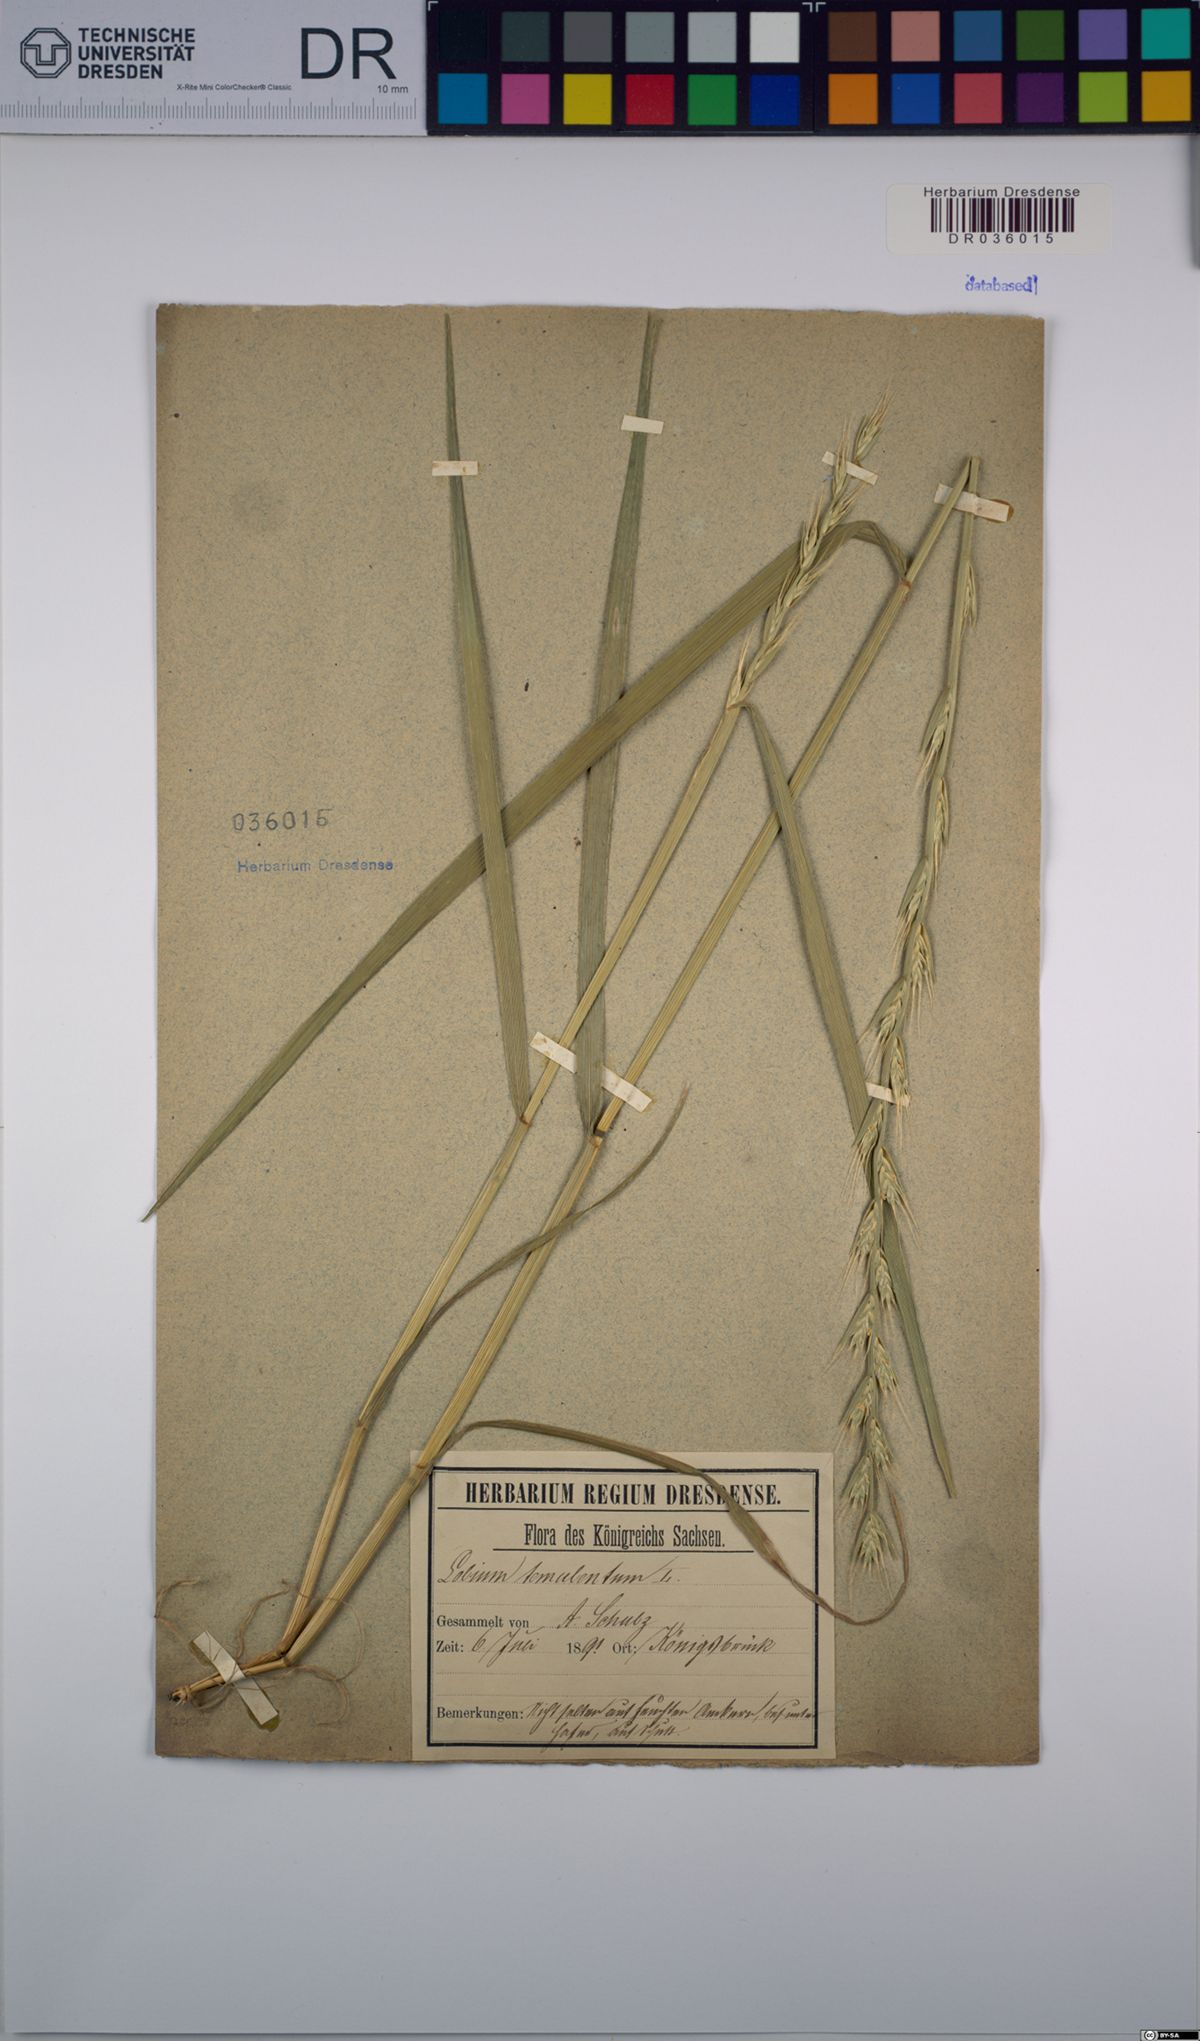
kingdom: Plantae
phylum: Tracheophyta
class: Liliopsida
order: Poales
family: Poaceae
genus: Lolium
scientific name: Lolium temulentum
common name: Darnel
